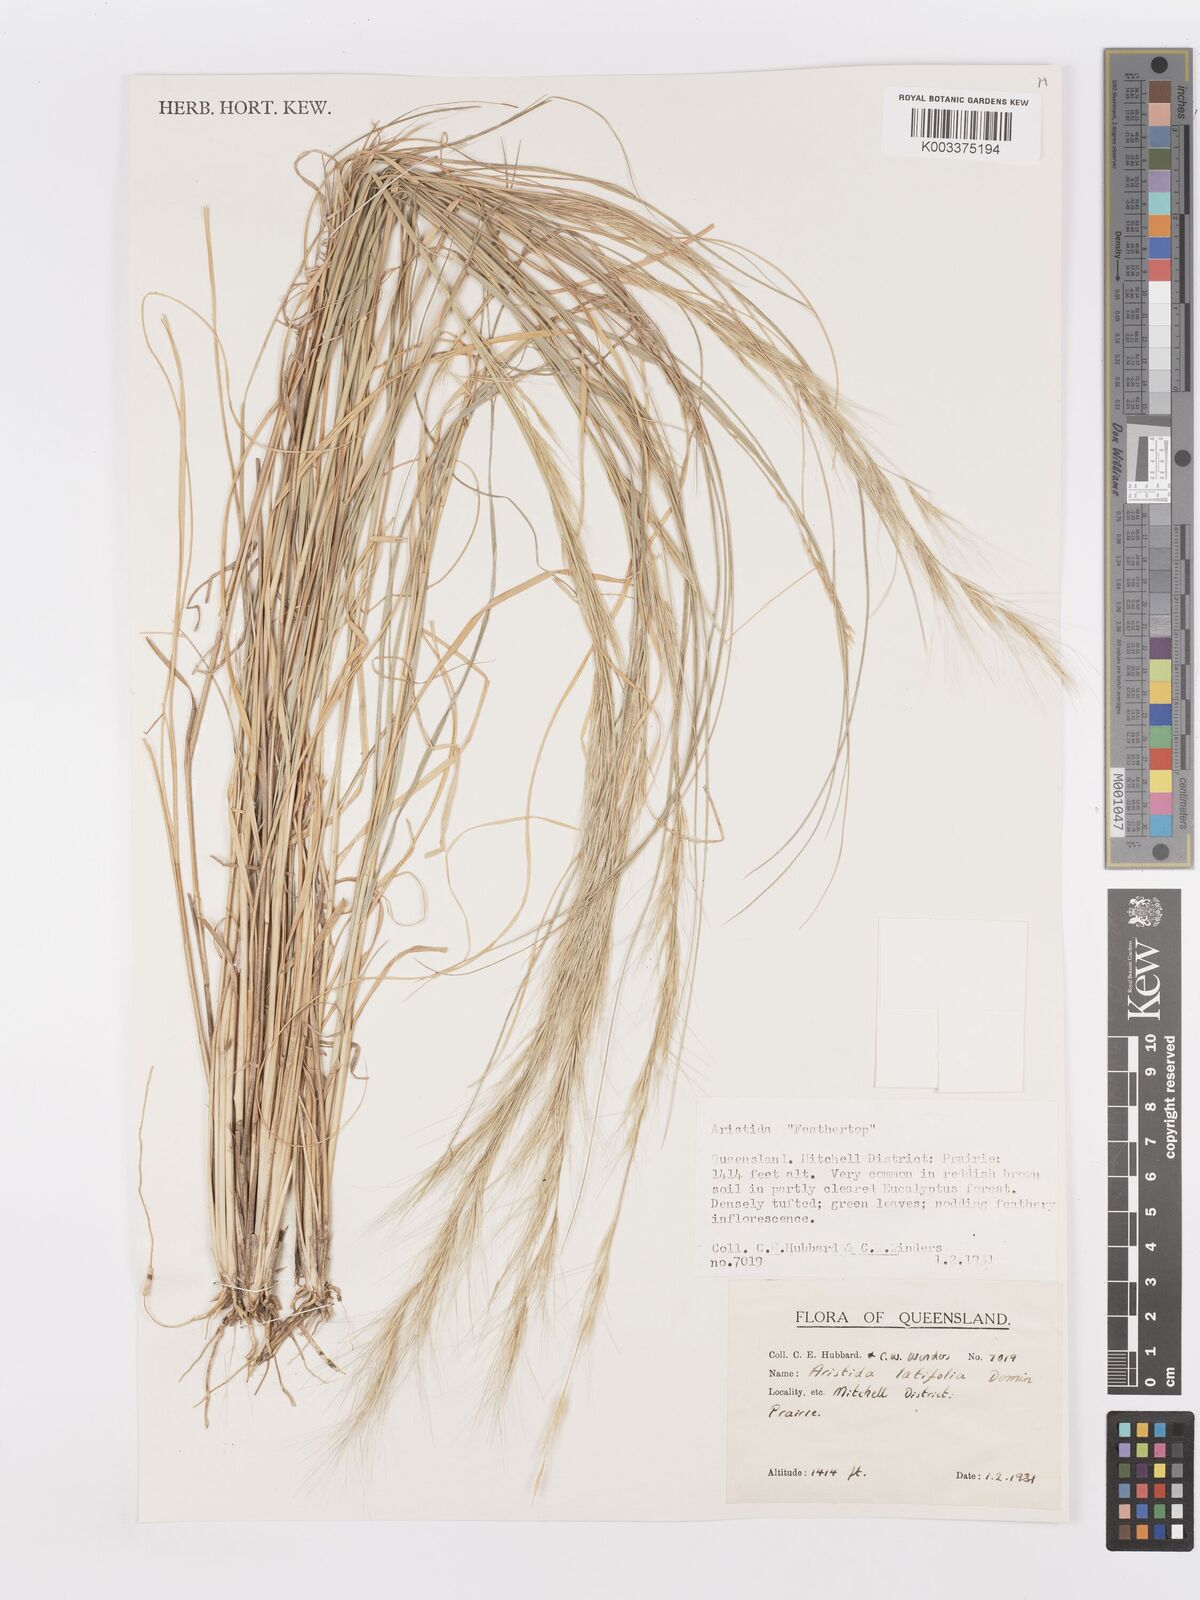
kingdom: Plantae
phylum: Tracheophyta
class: Liliopsida
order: Poales
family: Poaceae
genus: Aristida
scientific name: Aristida latifolia
